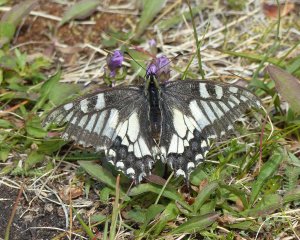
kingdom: Animalia
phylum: Arthropoda
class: Insecta
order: Lepidoptera
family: Papilionidae
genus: Papilio
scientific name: Papilio machaon
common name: Old World Swallowtail
